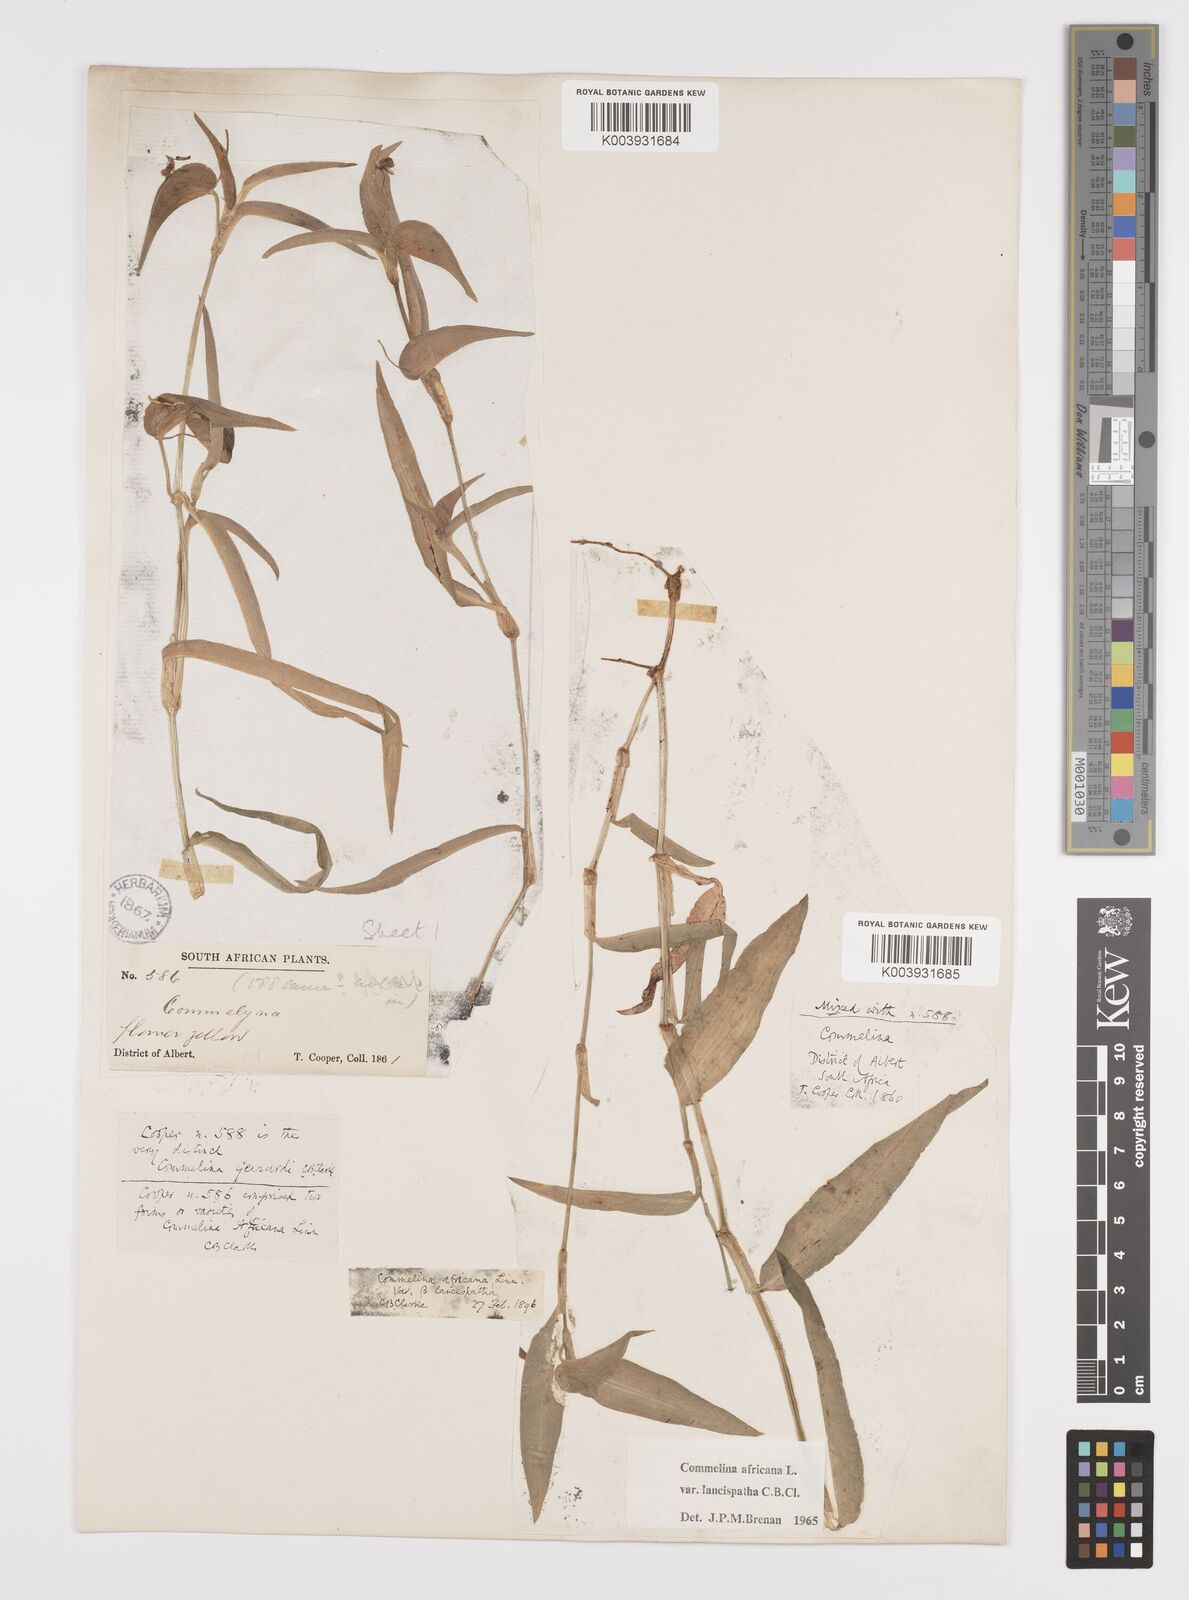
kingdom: Plantae
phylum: Tracheophyta
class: Liliopsida
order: Commelinales
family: Commelinaceae
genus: Commelina
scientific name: Commelina africana
